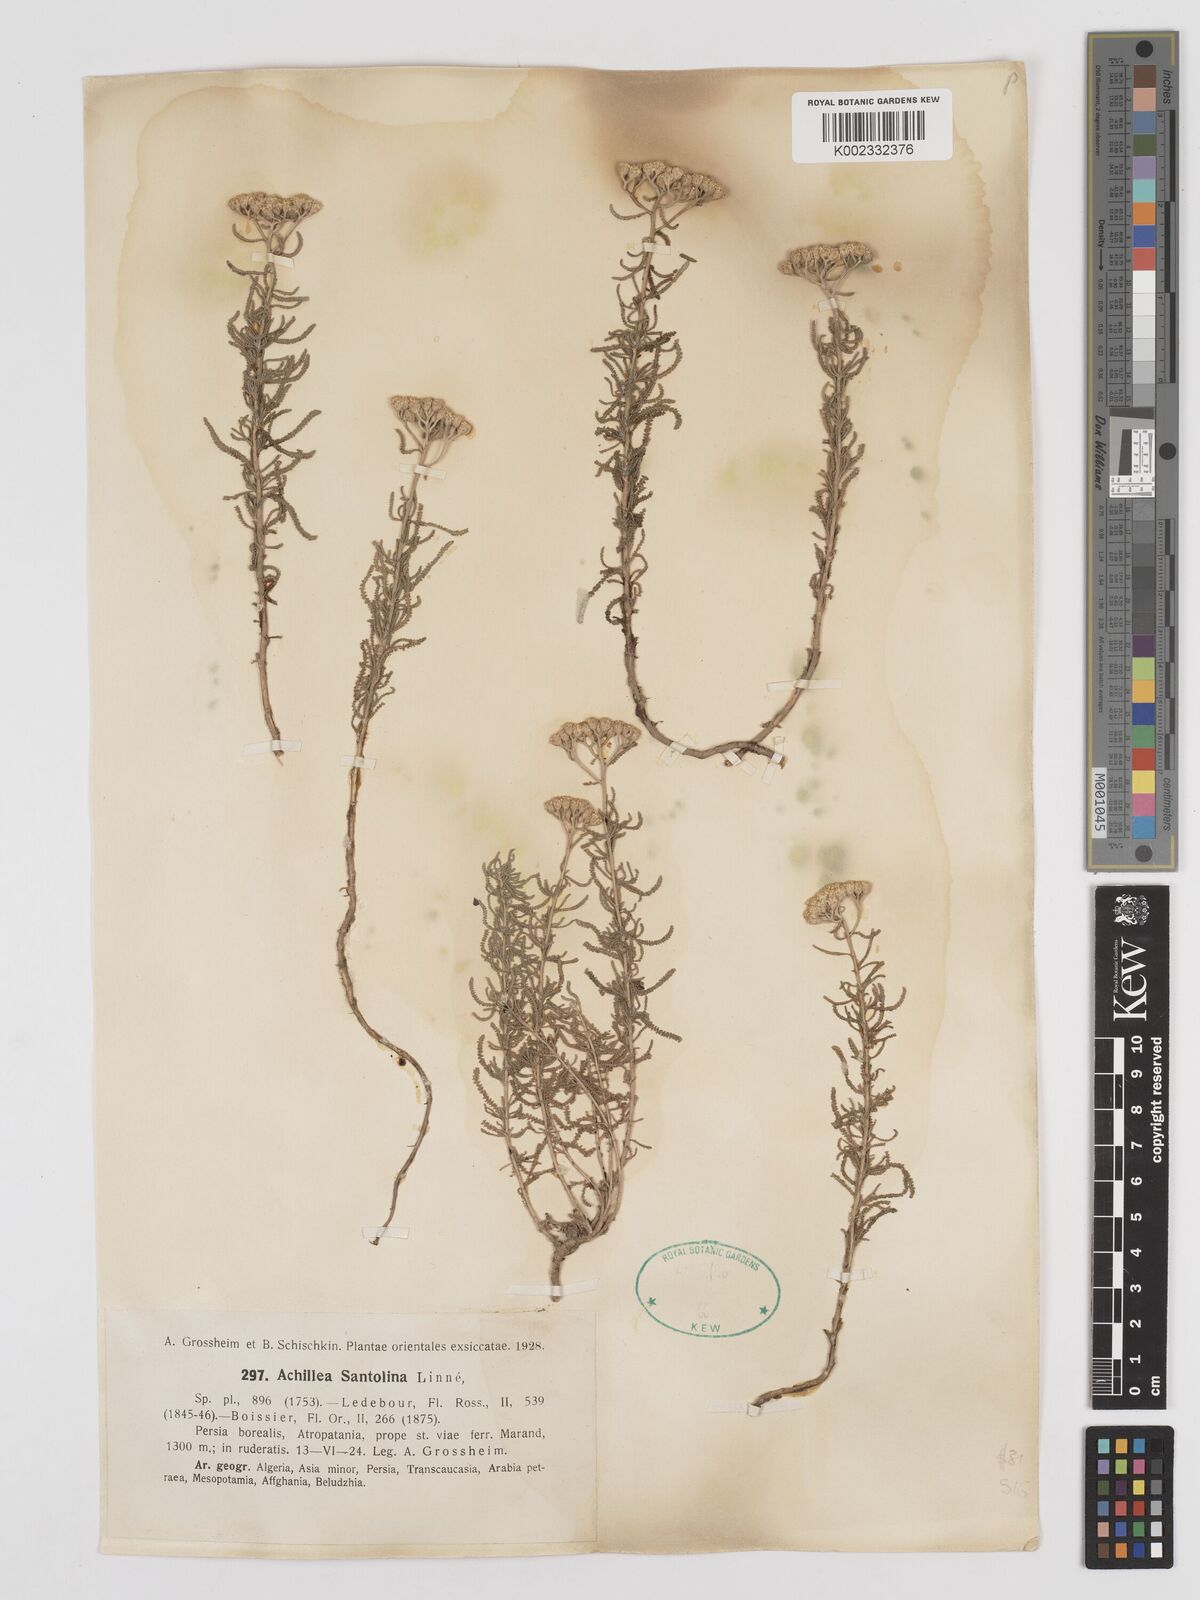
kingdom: Plantae
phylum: Tracheophyta
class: Magnoliopsida
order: Asterales
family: Asteraceae
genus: Achillea
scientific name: Achillea cretica
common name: Chamomile-leaved lavender-cotton
